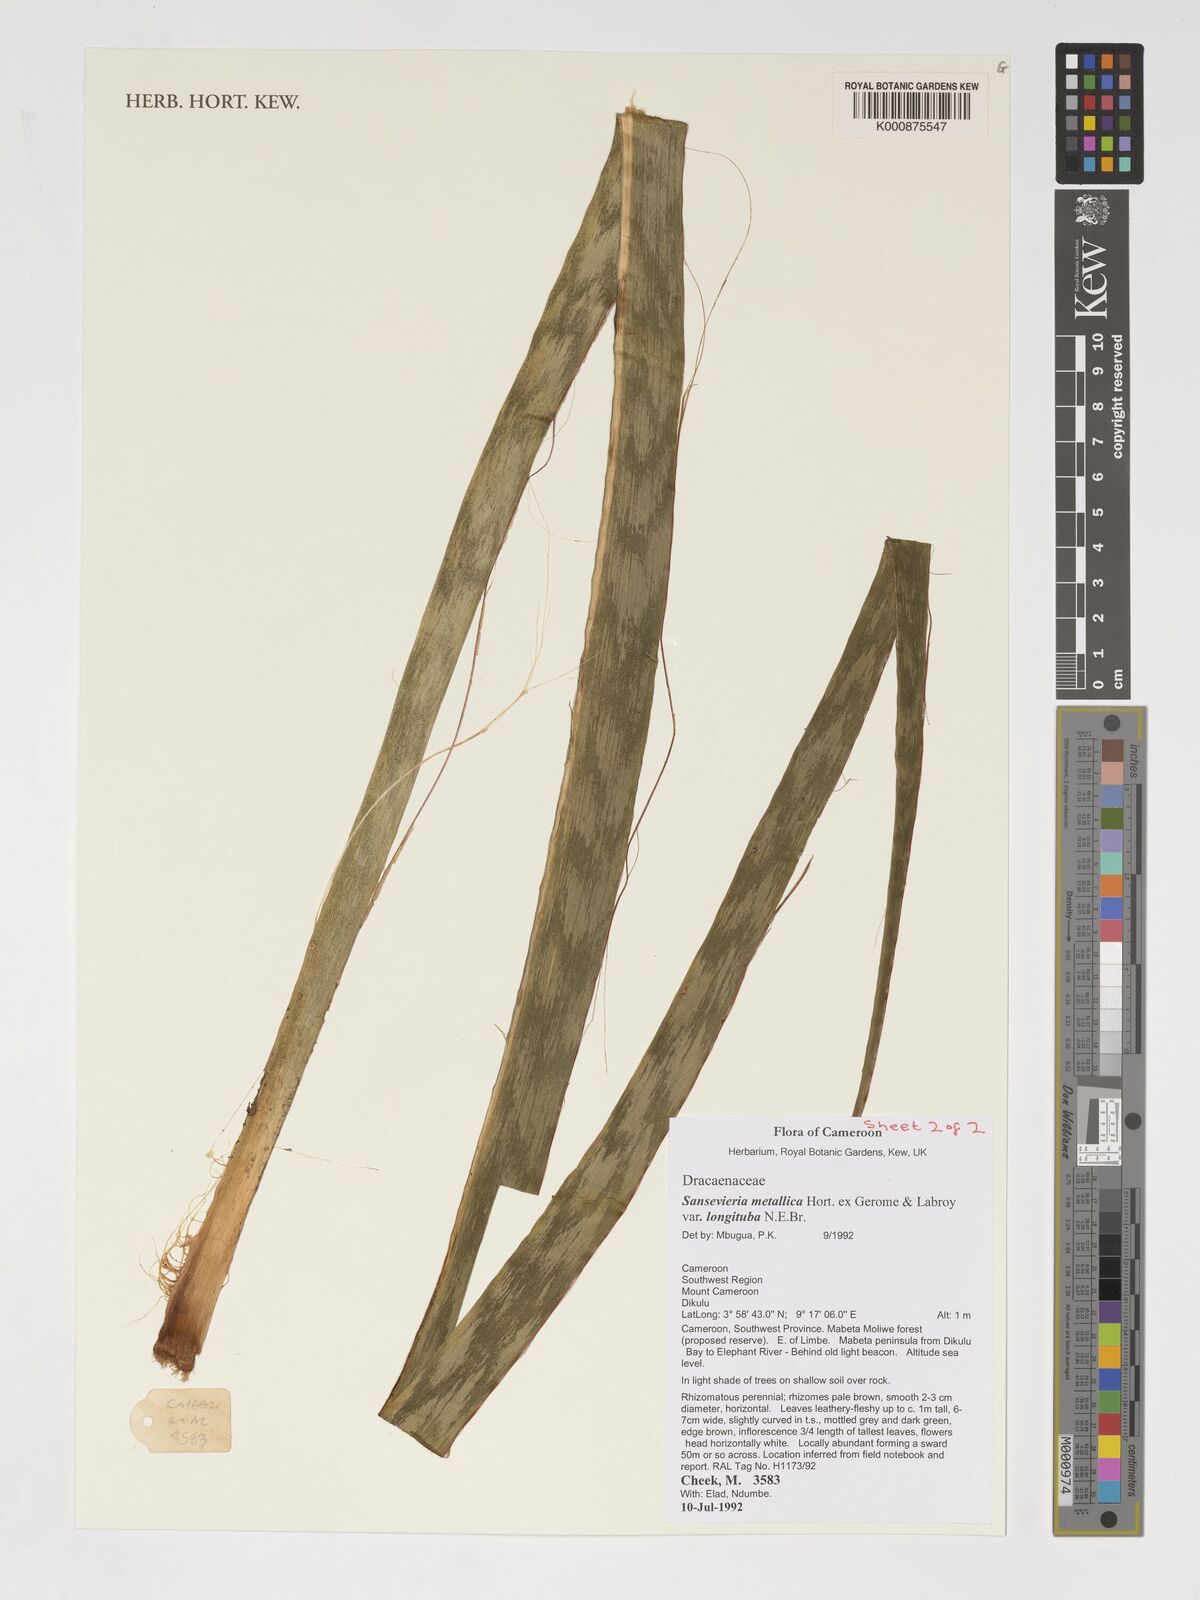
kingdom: Plantae
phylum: Tracheophyta
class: Liliopsida
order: Asparagales
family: Asparagaceae
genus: Dracaena
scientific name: Dracaena zebra
